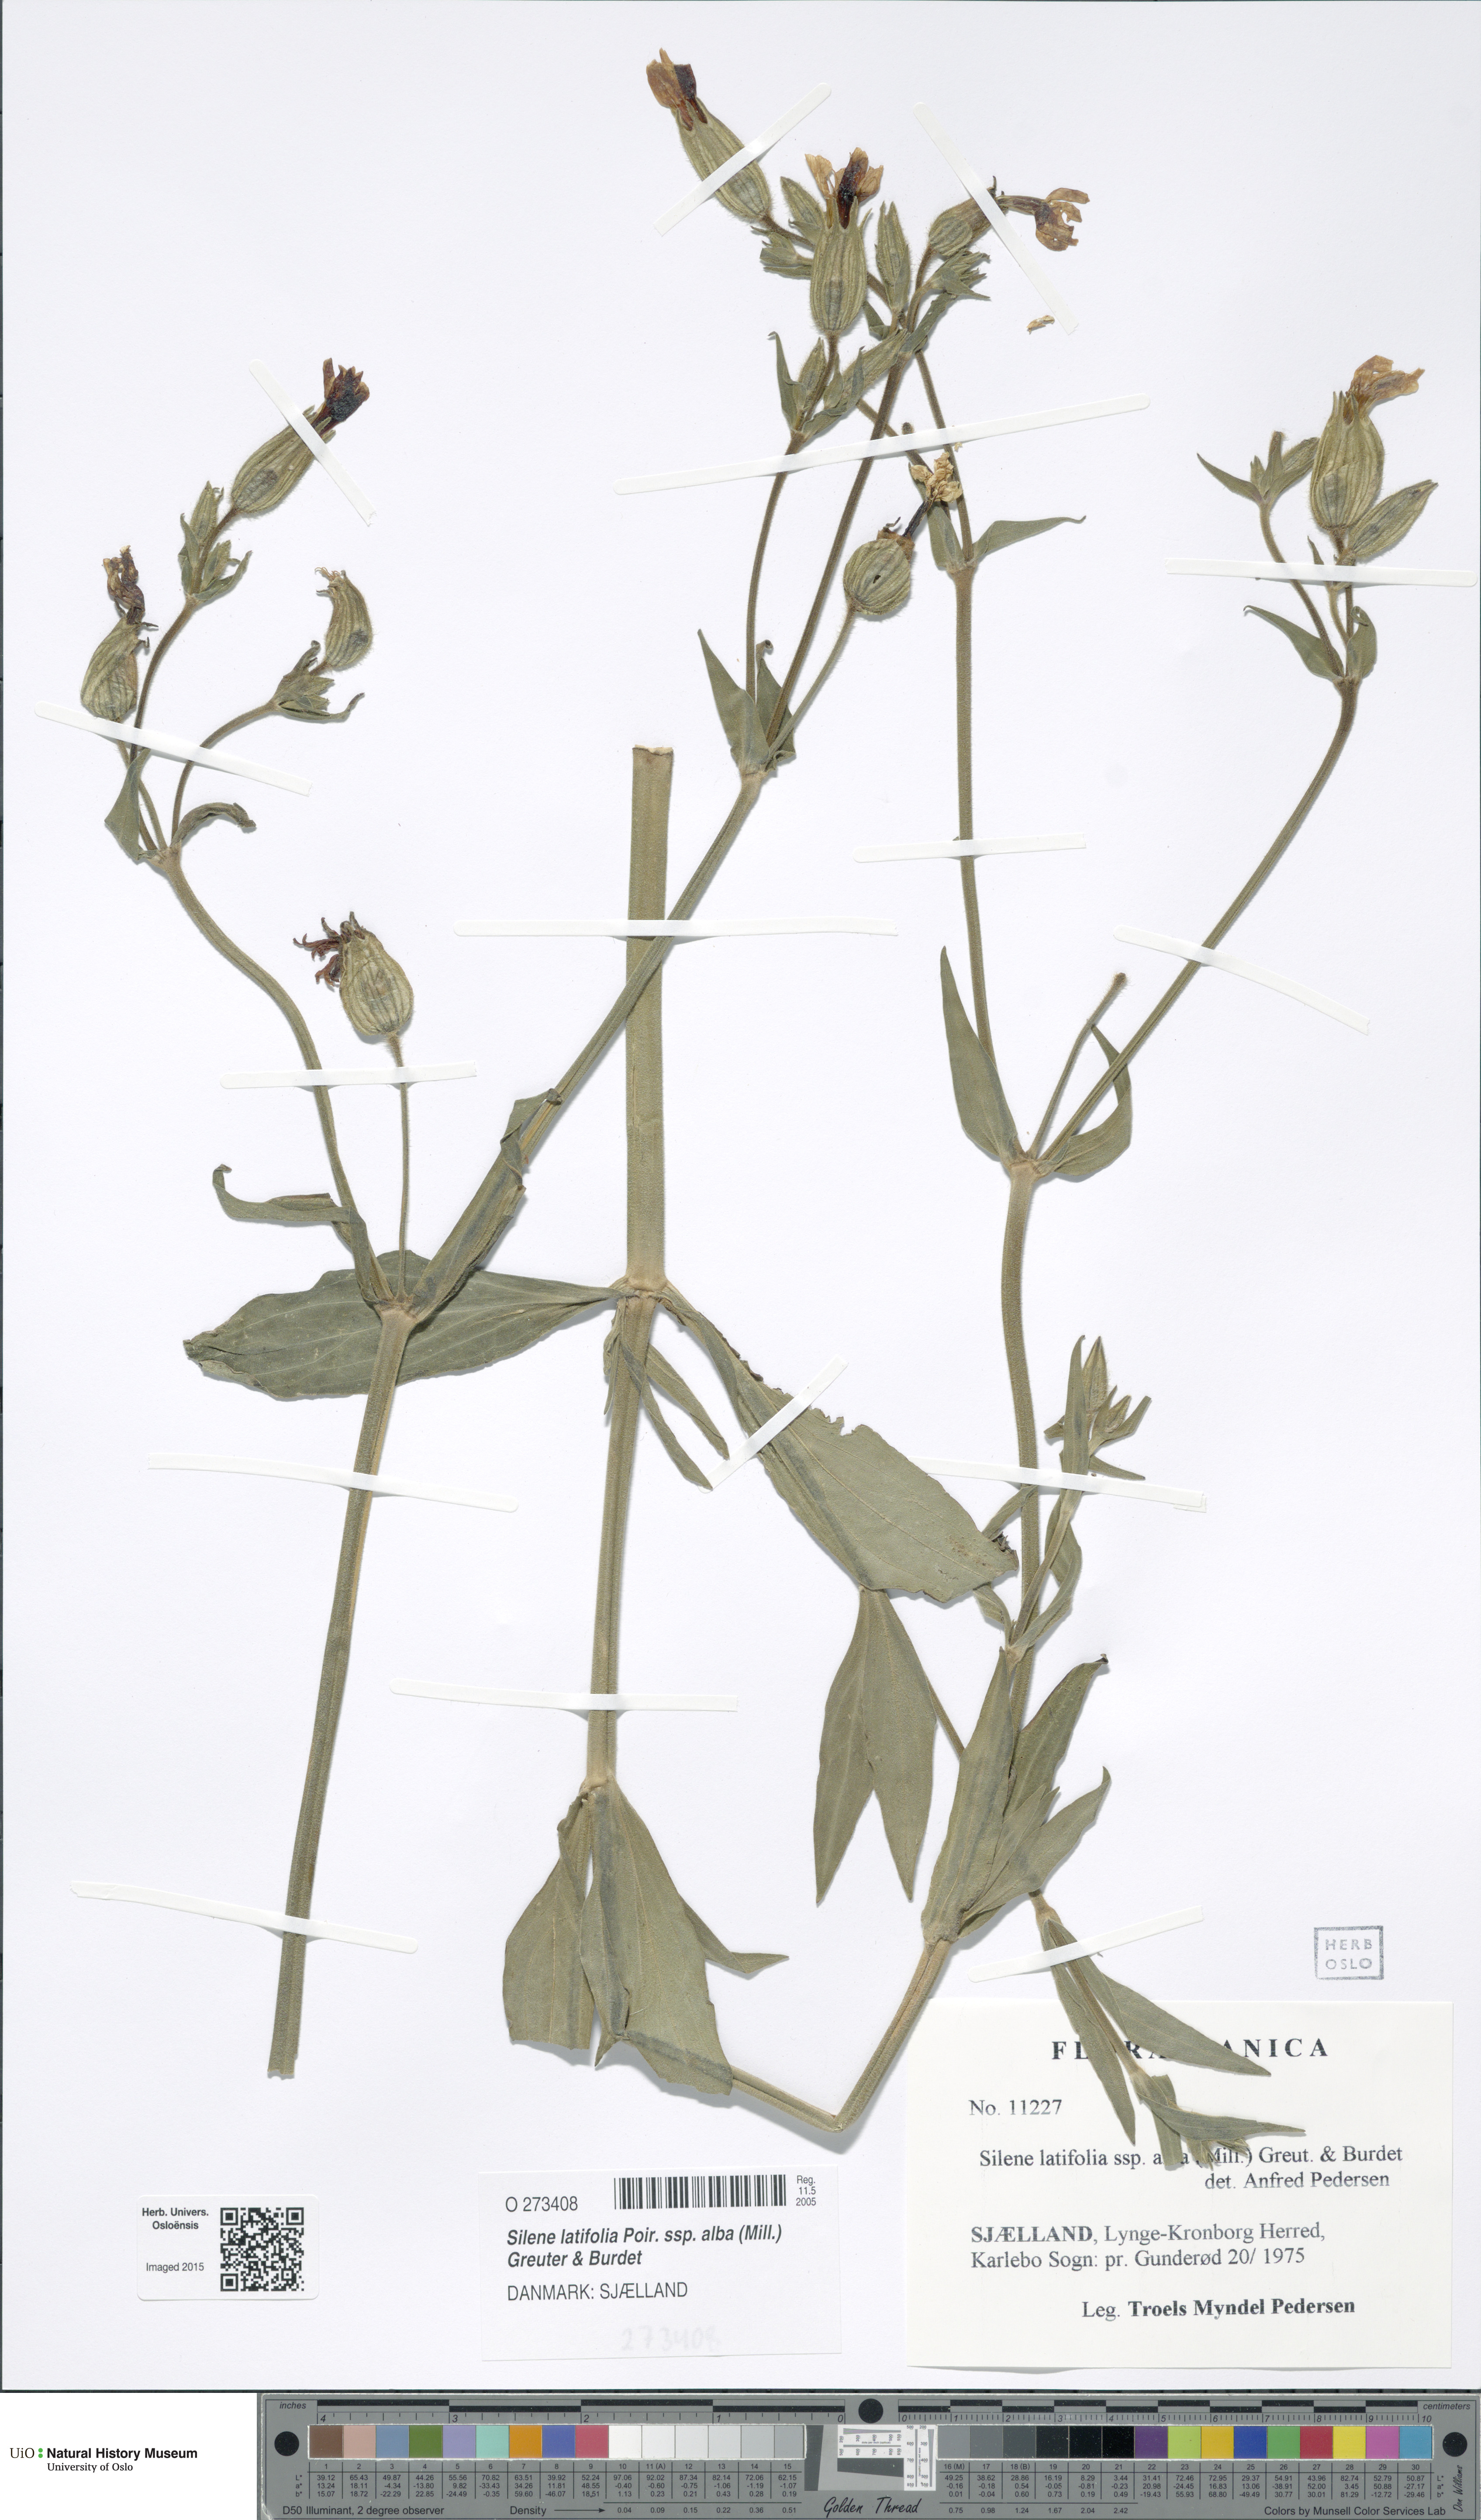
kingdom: Plantae
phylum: Tracheophyta
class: Magnoliopsida
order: Caryophyllales
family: Caryophyllaceae
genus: Silene
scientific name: Silene latifolia
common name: White campion
